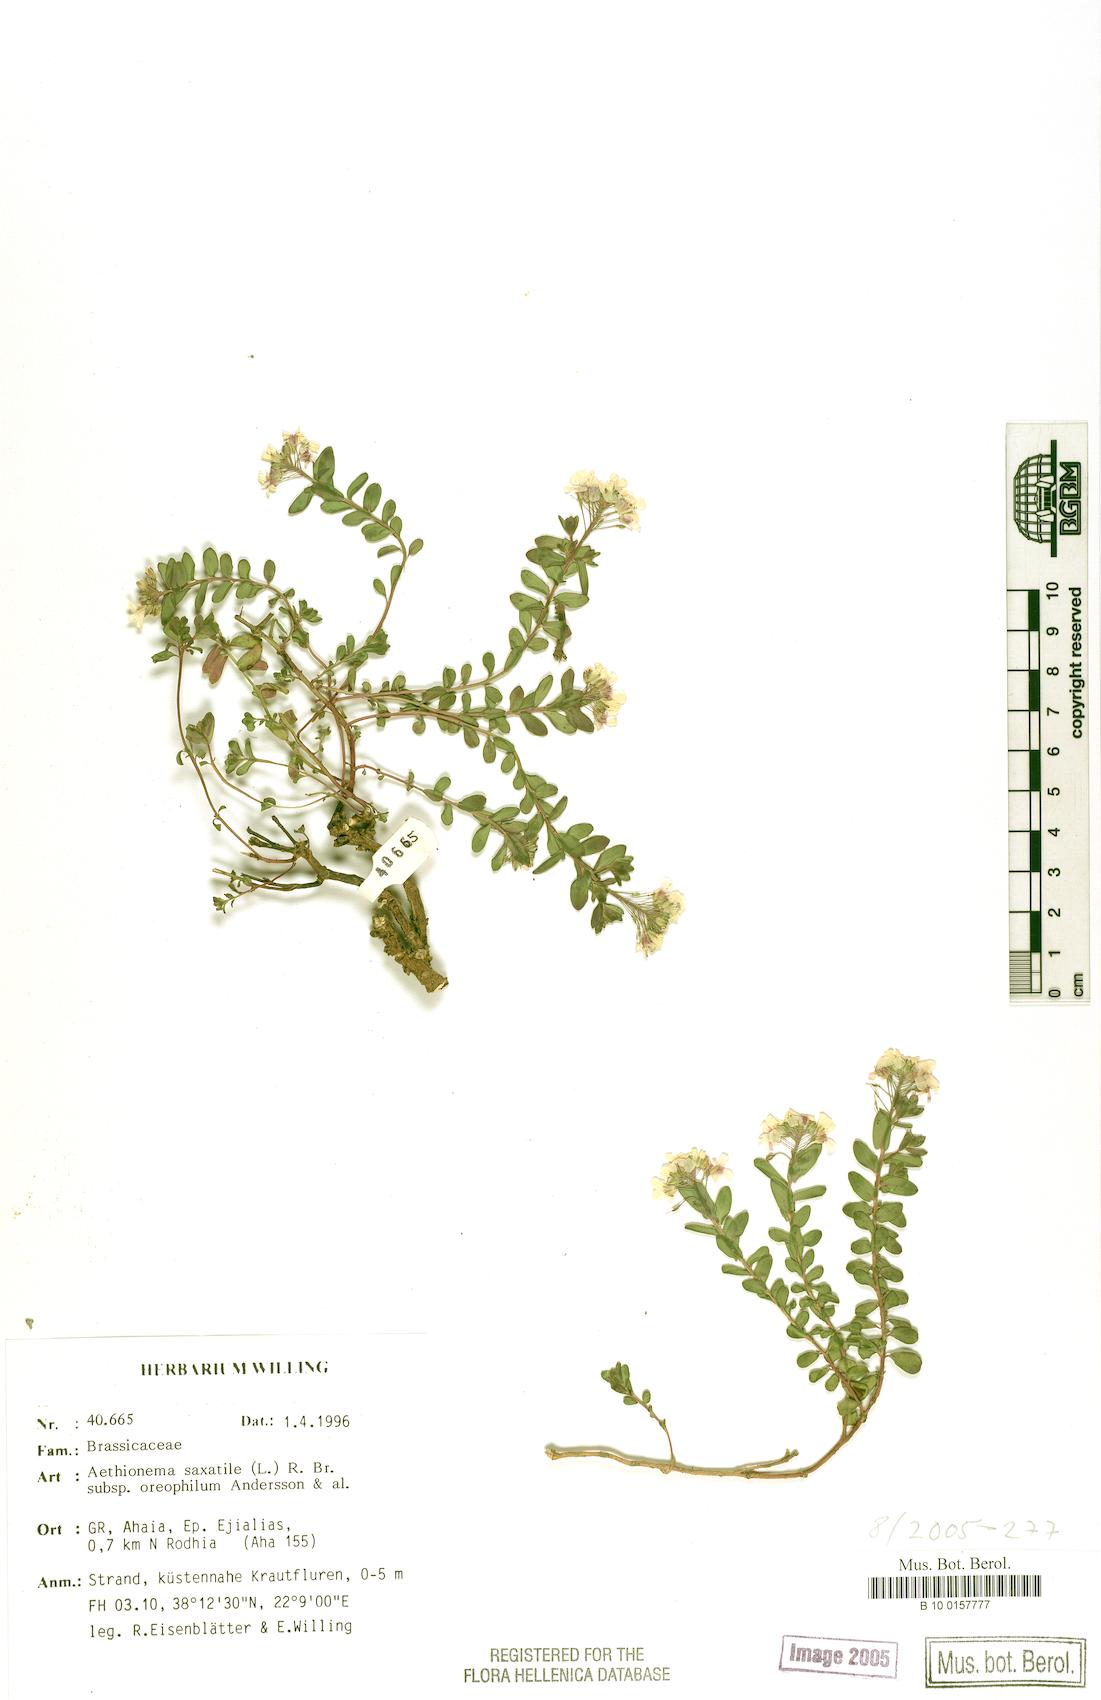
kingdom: Plantae
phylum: Tracheophyta
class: Magnoliopsida
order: Brassicales
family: Brassicaceae
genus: Aethionema
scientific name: Aethionema saxatile
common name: Burnt candytuft
